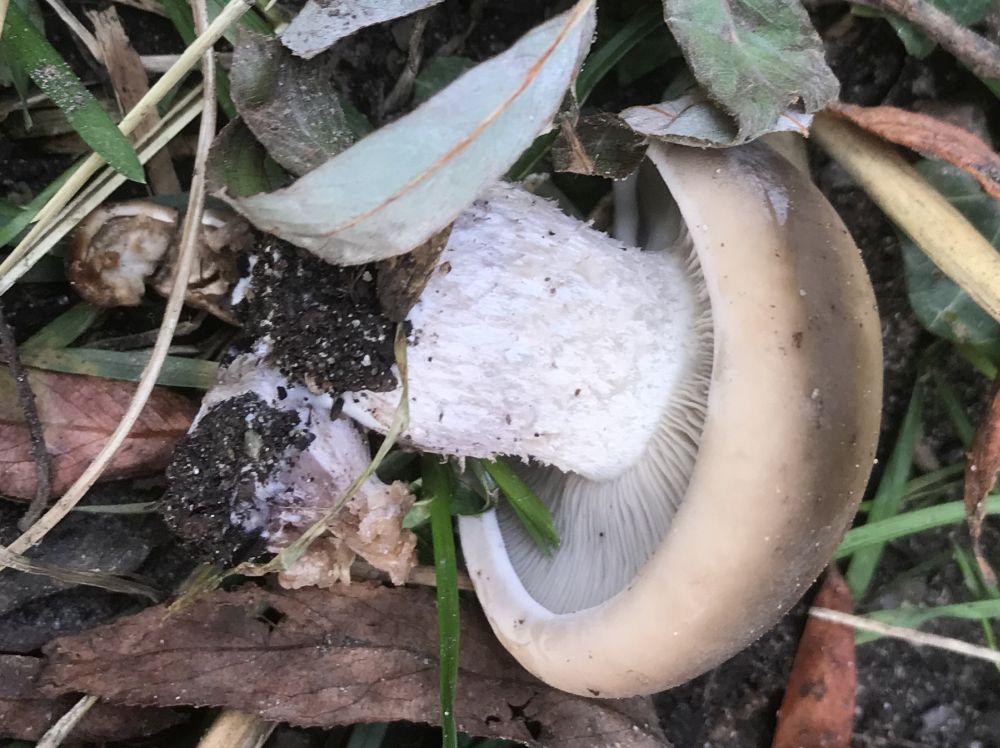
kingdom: Fungi
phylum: Basidiomycota
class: Agaricomycetes
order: Agaricales
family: Tricholomataceae
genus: Lepista
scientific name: Lepista personata
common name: bleg hekseringshat
